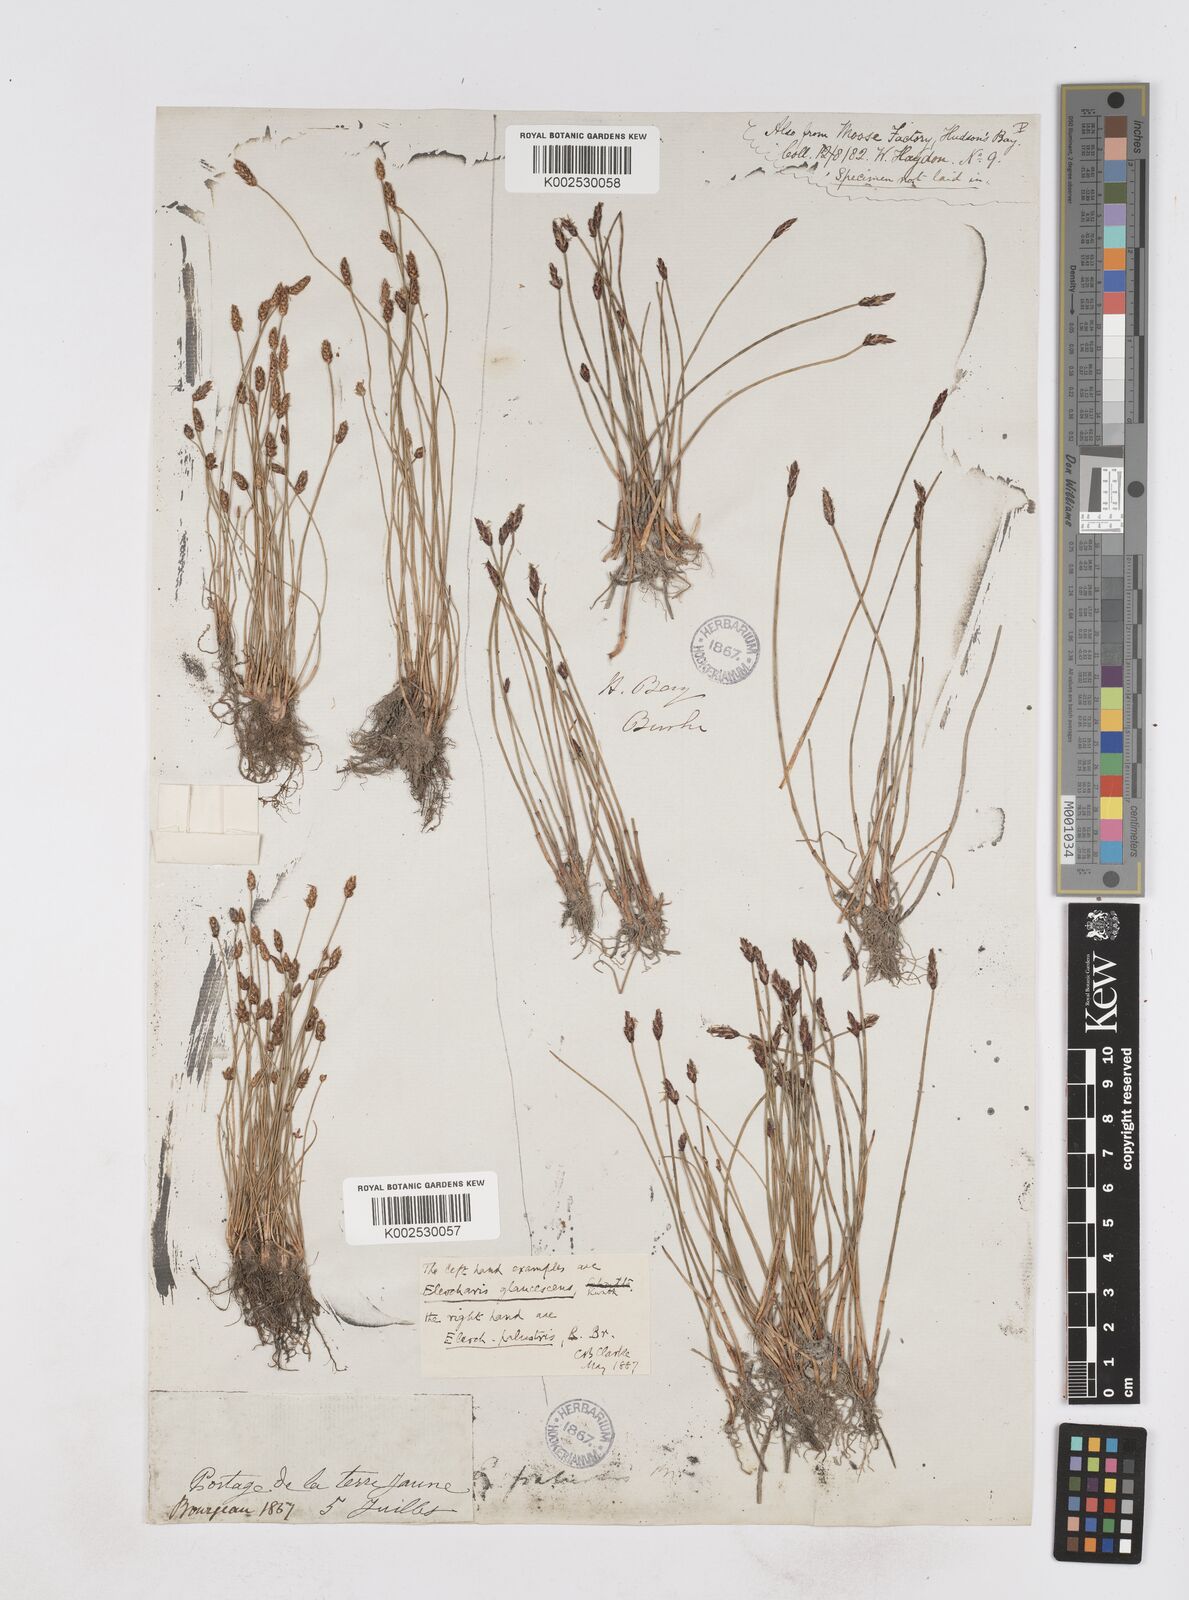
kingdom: Plantae
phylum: Tracheophyta
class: Liliopsida
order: Poales
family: Cyperaceae
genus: Eleocharis
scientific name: Eleocharis palustris
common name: Common spike-rush
